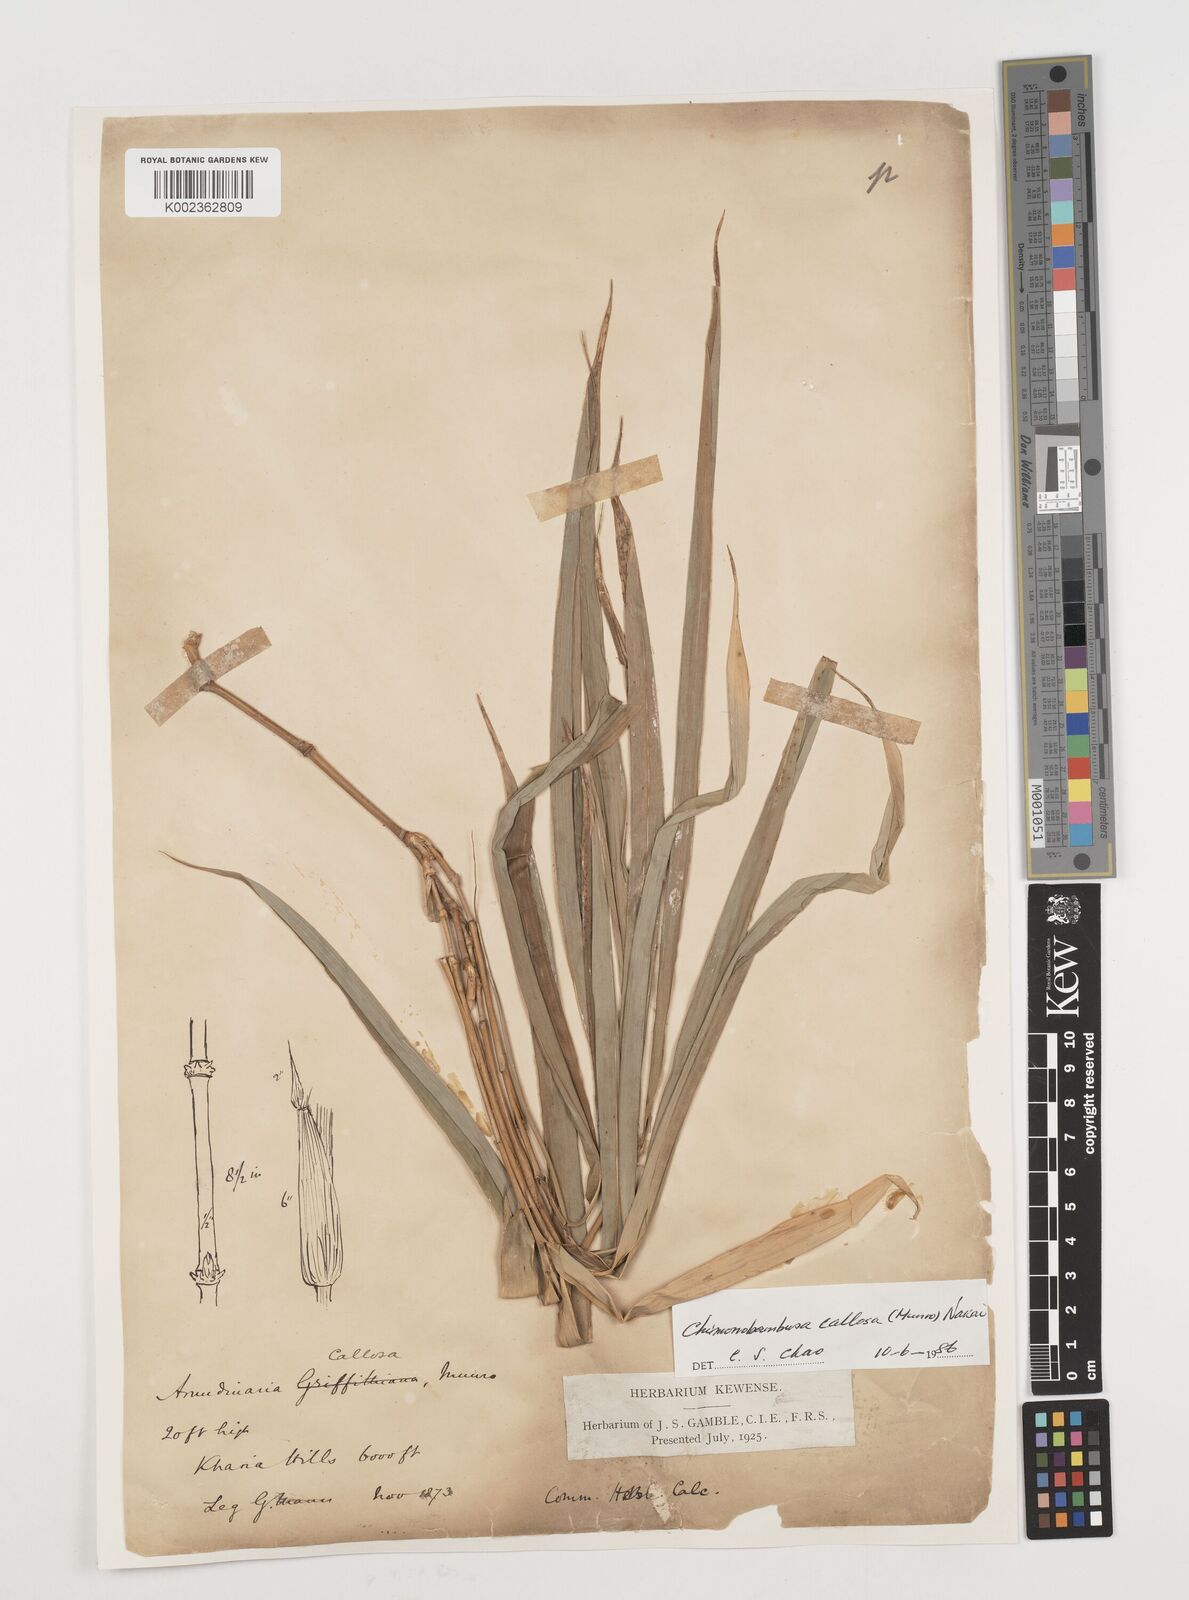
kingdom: Plantae
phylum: Tracheophyta
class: Liliopsida
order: Poales
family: Poaceae
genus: Chimonobambusa
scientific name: Chimonobambusa callosa
